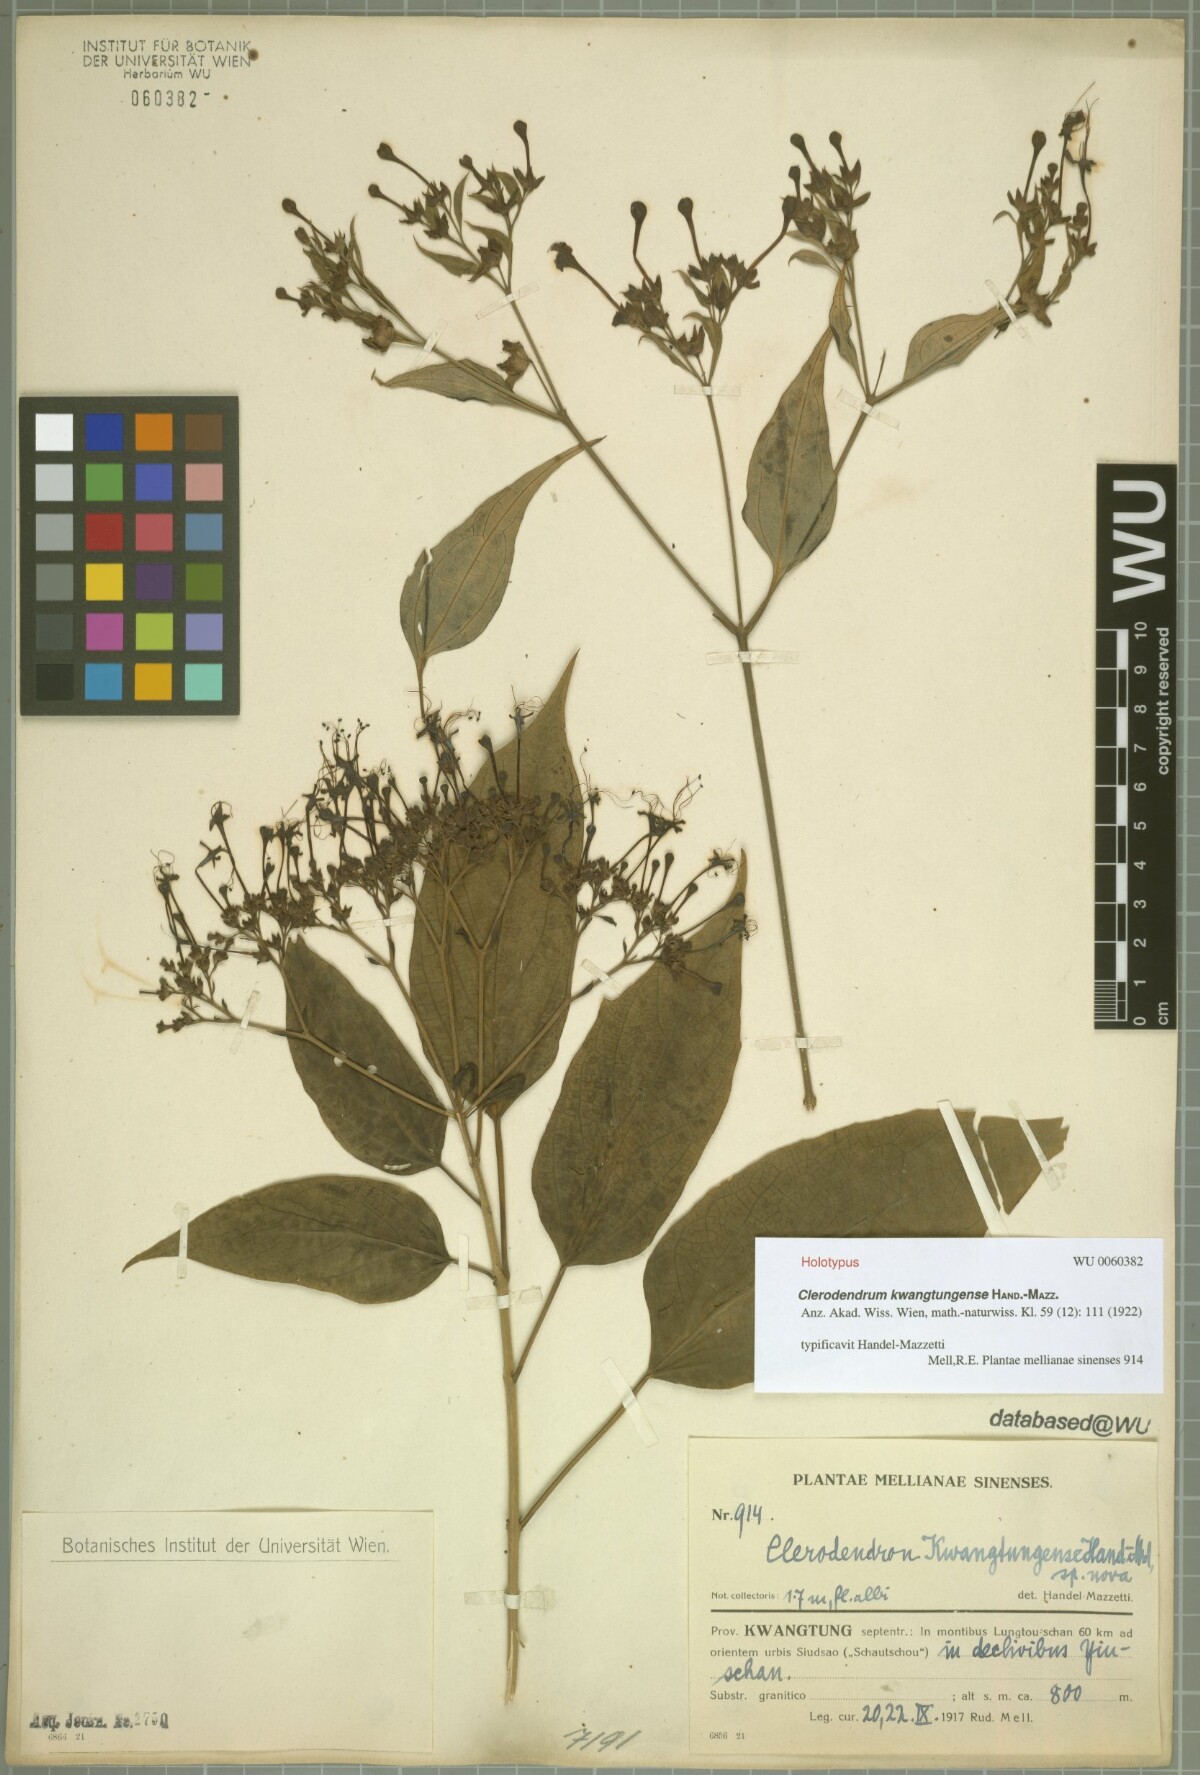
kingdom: Plantae
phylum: Tracheophyta
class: Magnoliopsida
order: Lamiales
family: Lamiaceae
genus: Clerodendrum
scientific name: Clerodendrum kwangtungense
